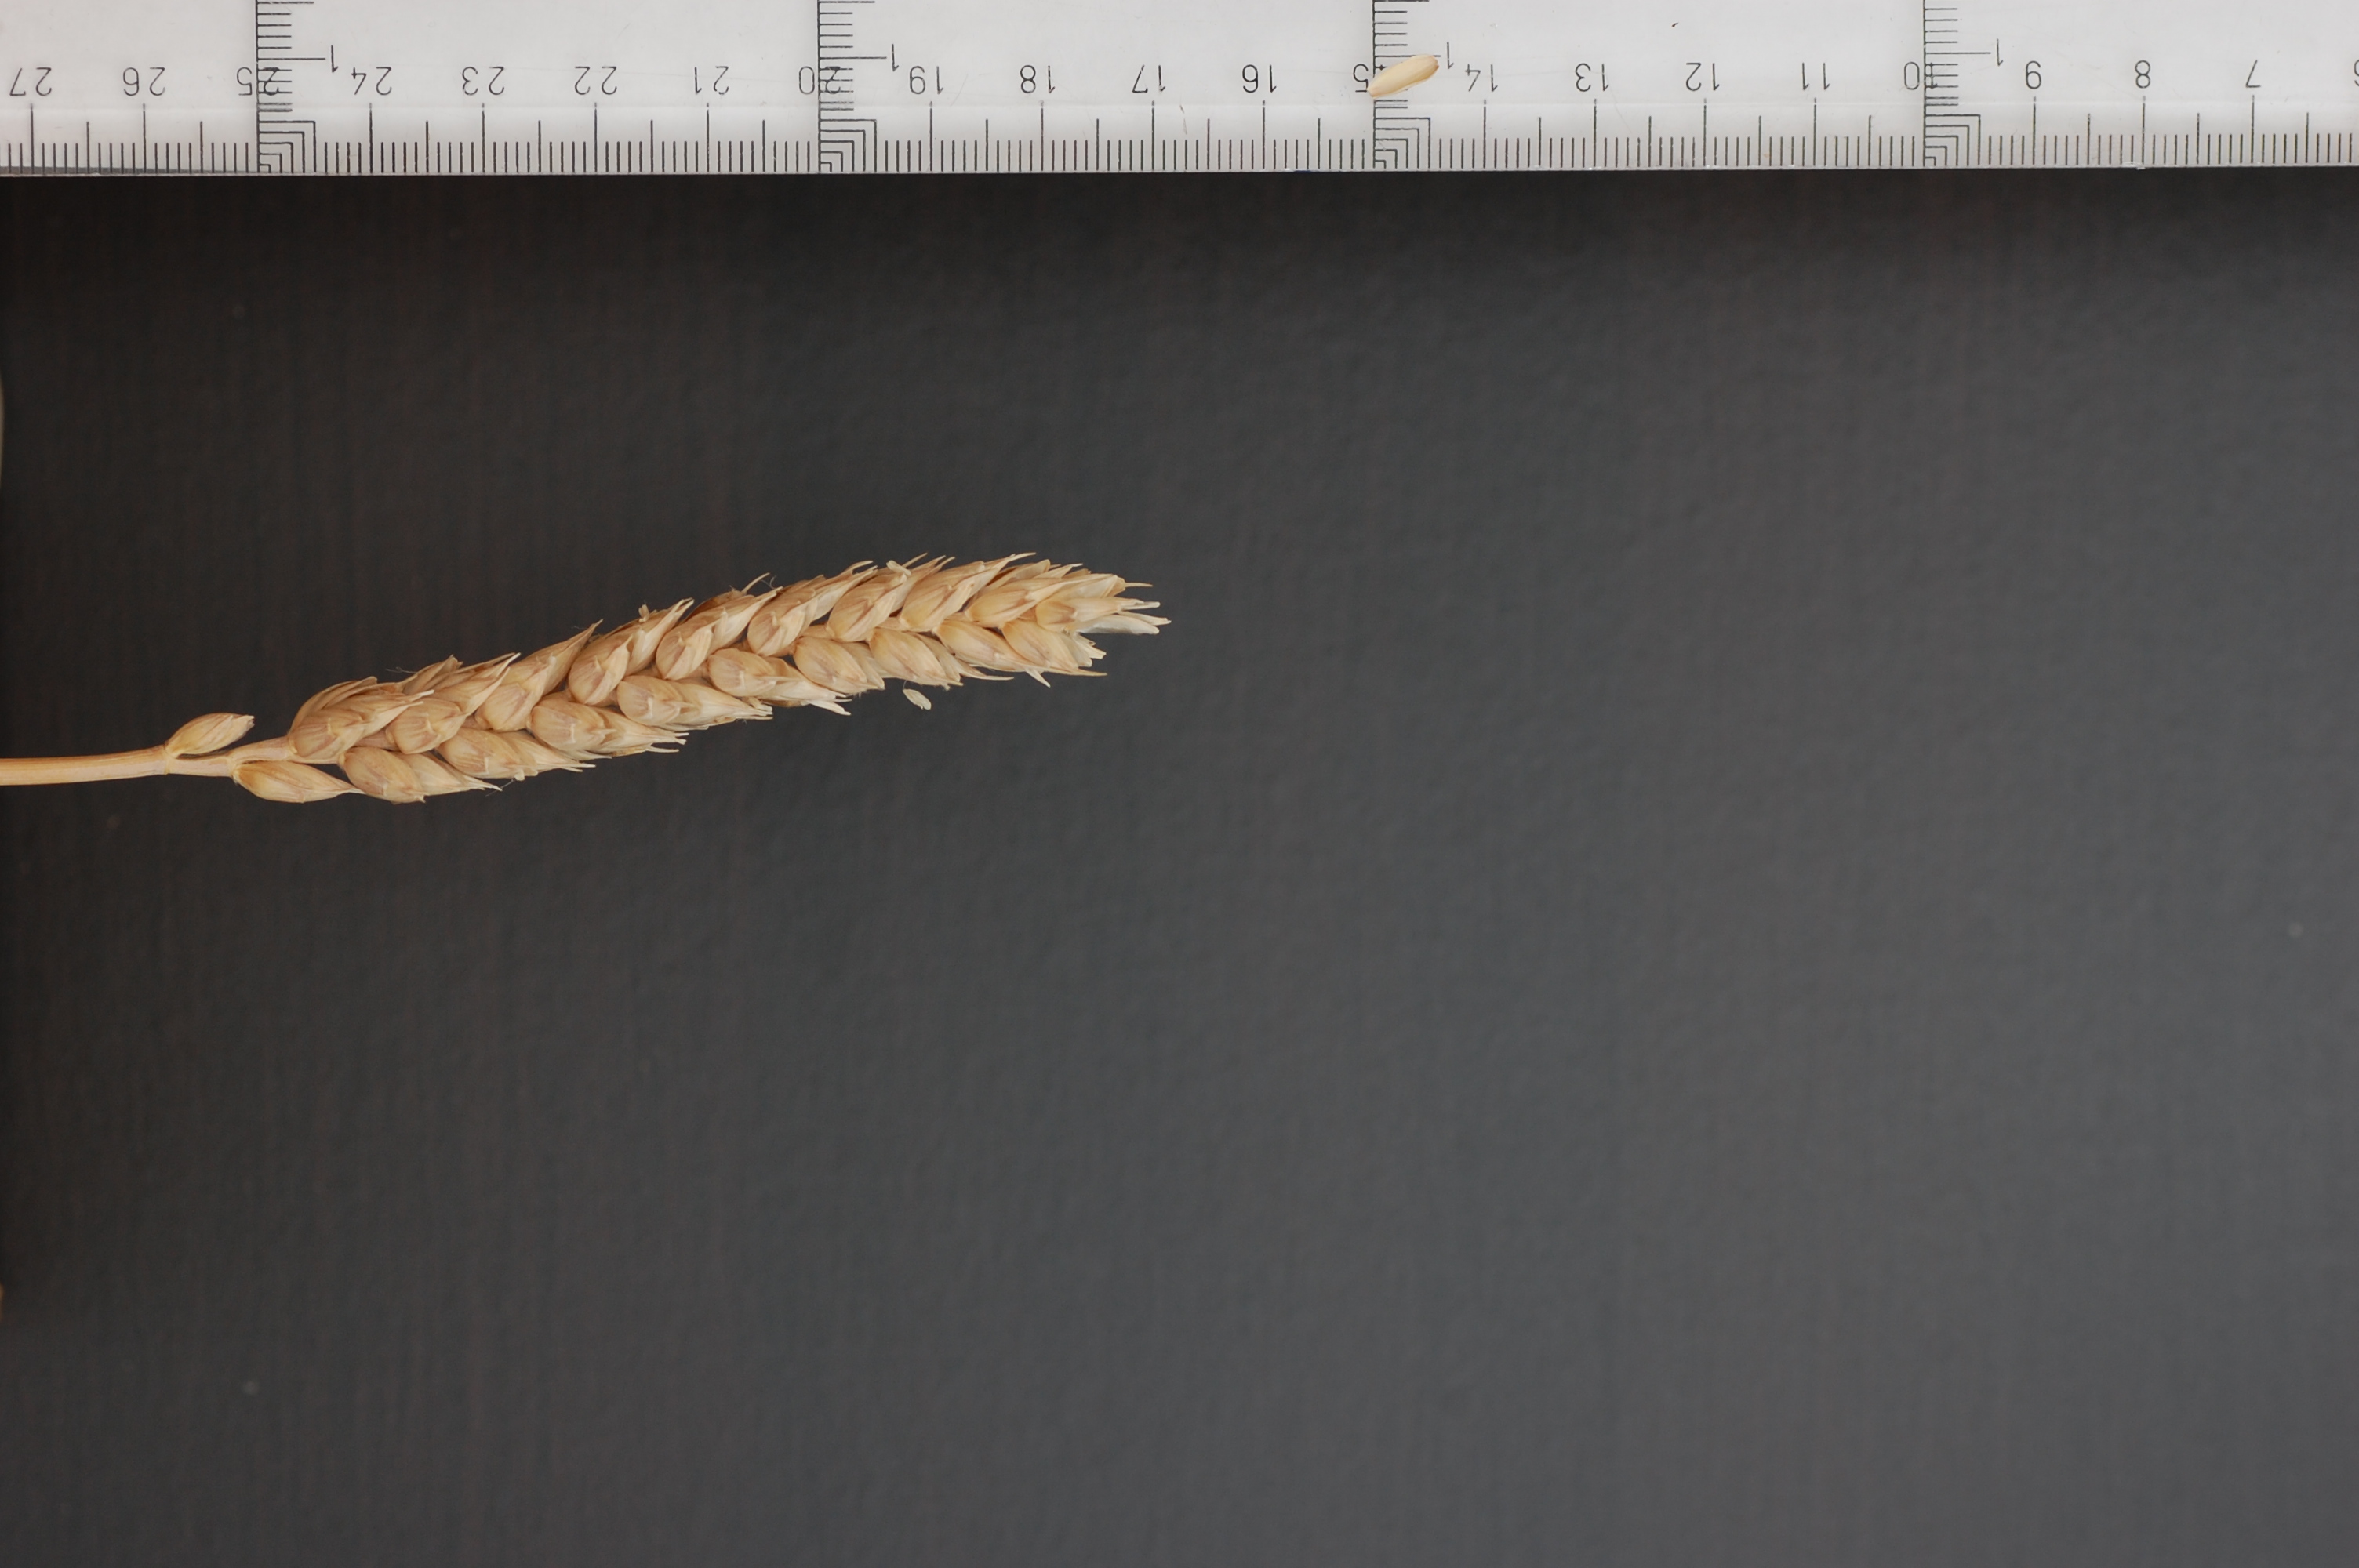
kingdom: Plantae
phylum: Tracheophyta
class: Liliopsida
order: Poales
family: Poaceae
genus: Triticum
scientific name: Triticum aestivum
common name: Common wheat
